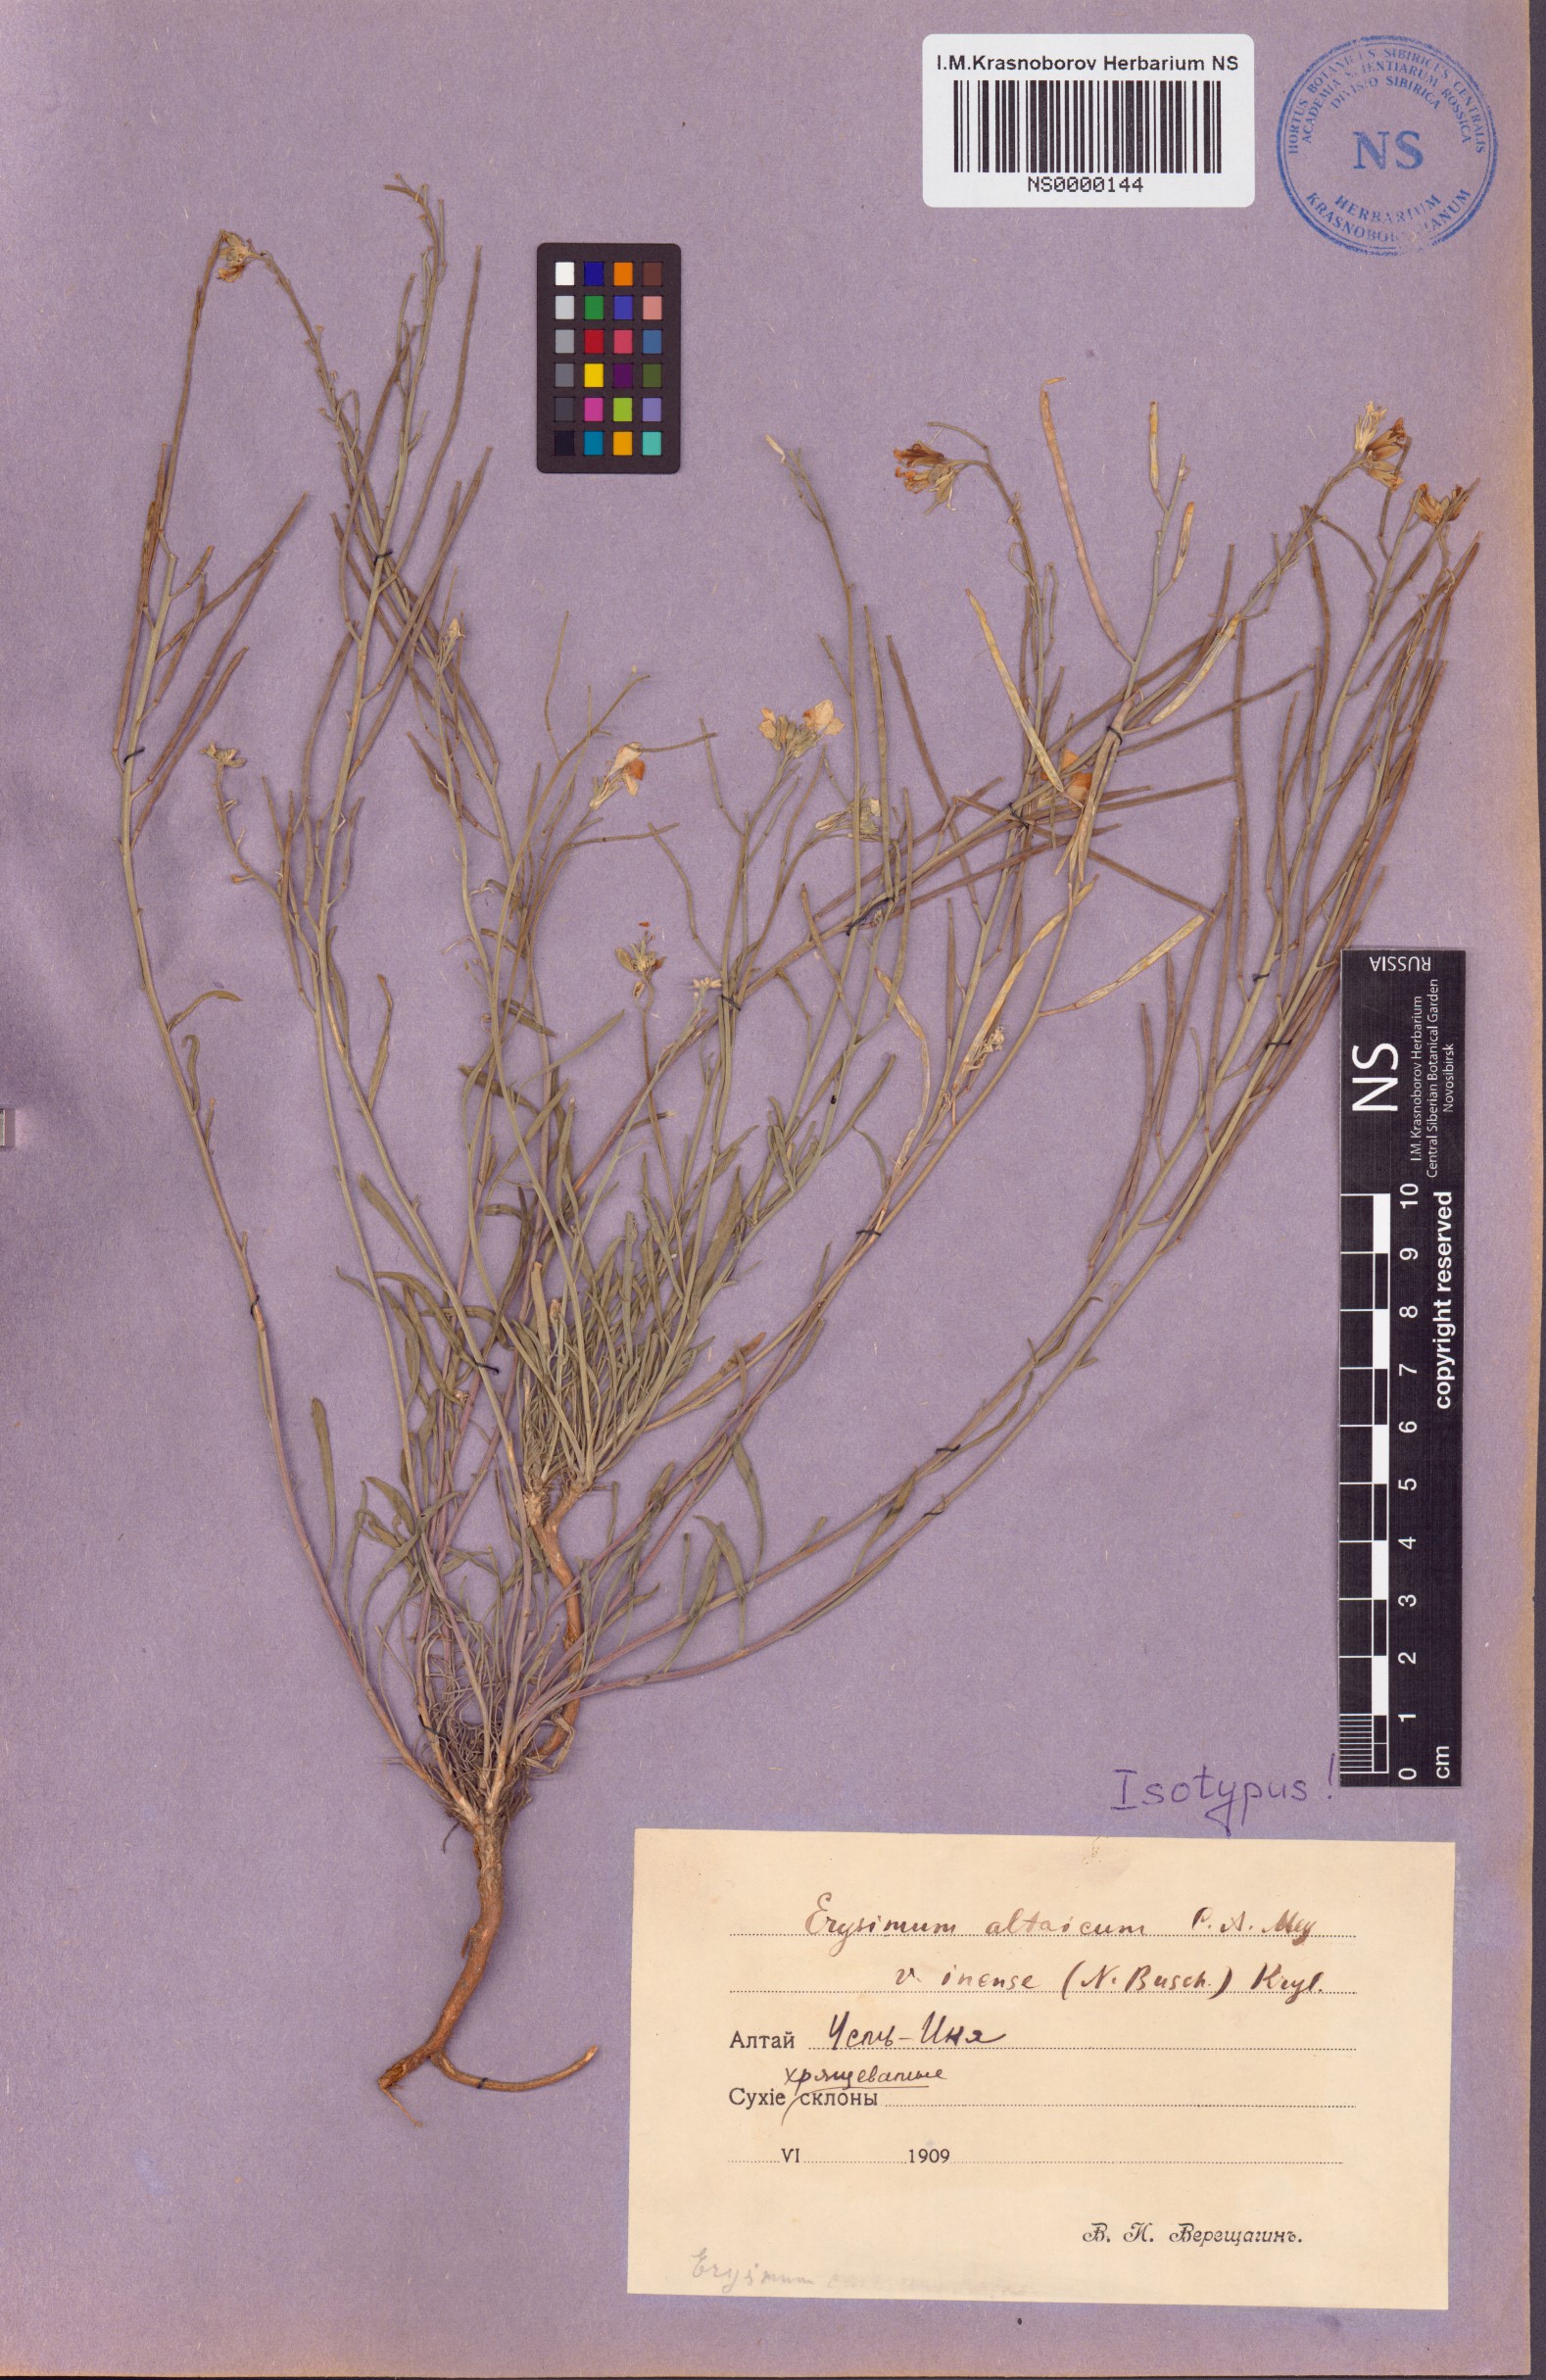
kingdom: Plantae
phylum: Tracheophyta
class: Magnoliopsida
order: Brassicales
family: Brassicaceae
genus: Erysimum
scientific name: Erysimum inense
